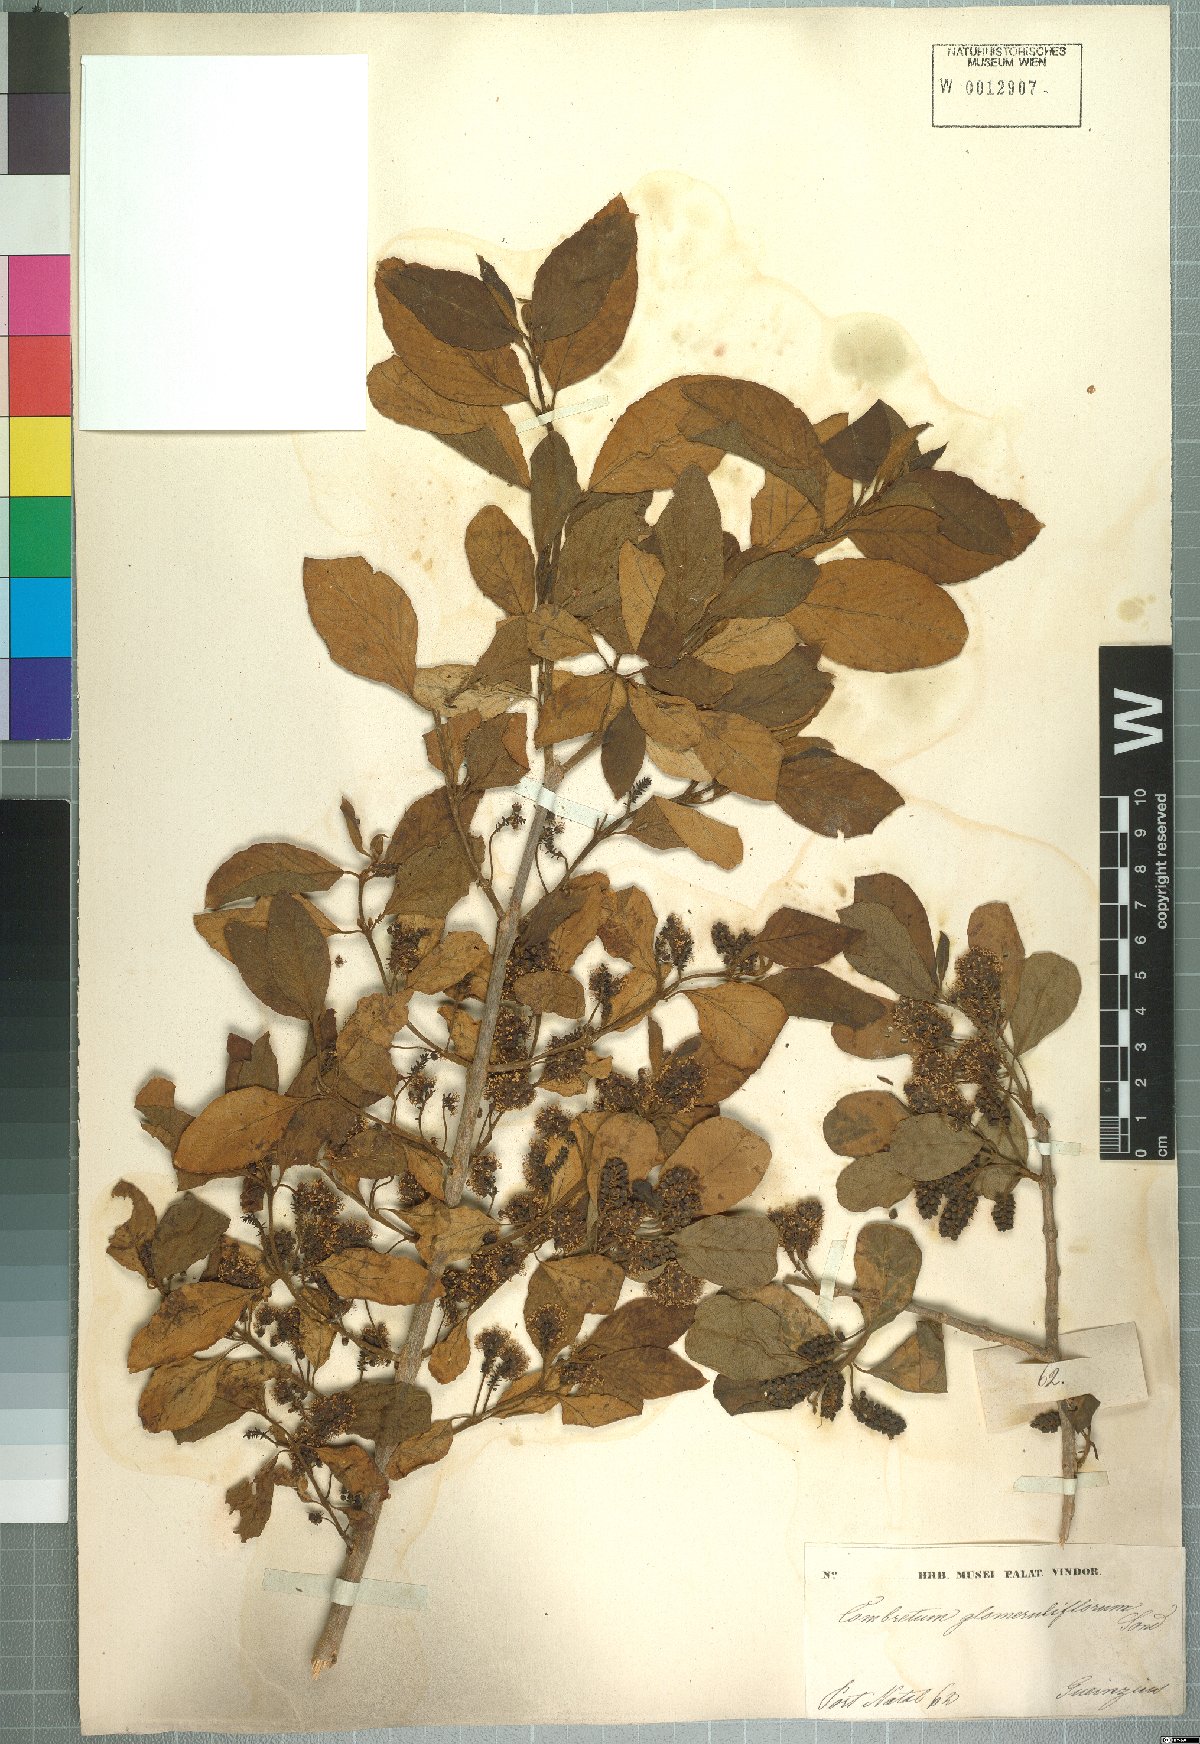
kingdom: Plantae
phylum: Tracheophyta
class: Magnoliopsida
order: Myrtales
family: Combretaceae
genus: Combretum
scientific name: Combretum erythrophyllum
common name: Bush-willow
